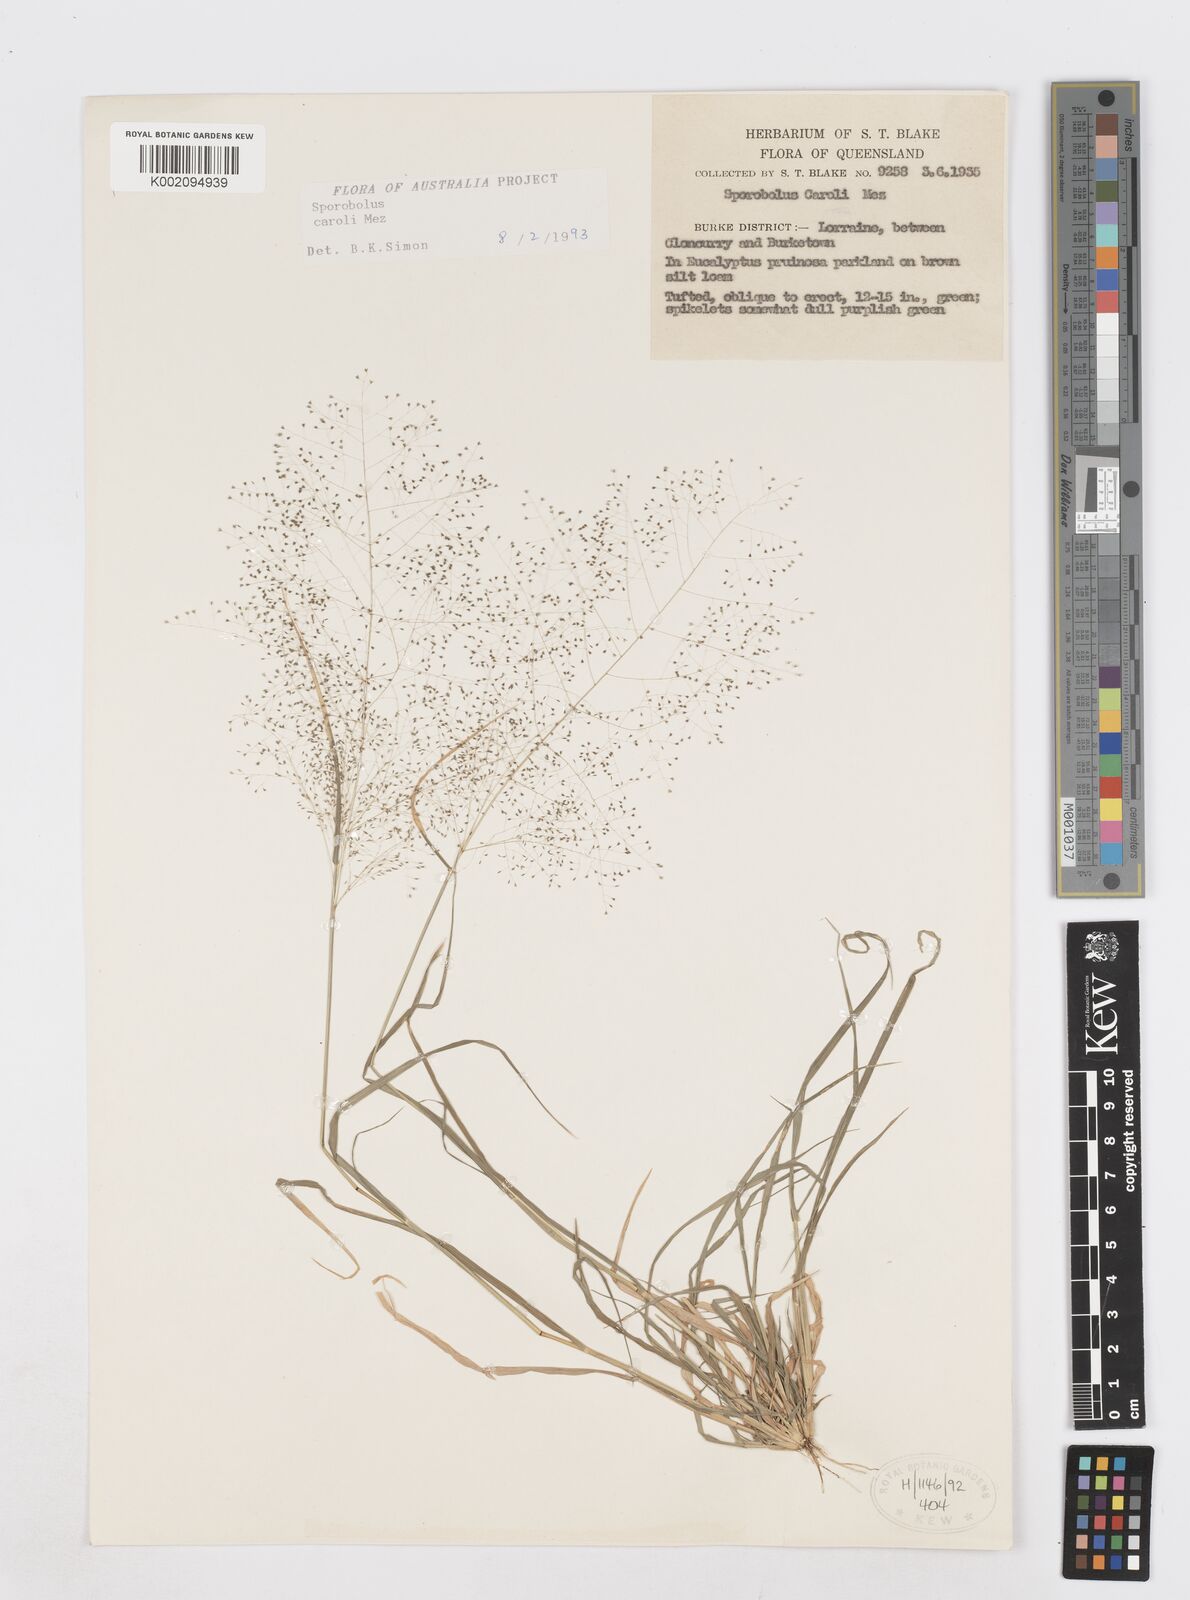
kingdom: Plantae
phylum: Tracheophyta
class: Liliopsida
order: Poales
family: Poaceae
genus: Sporobolus
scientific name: Sporobolus caroli
